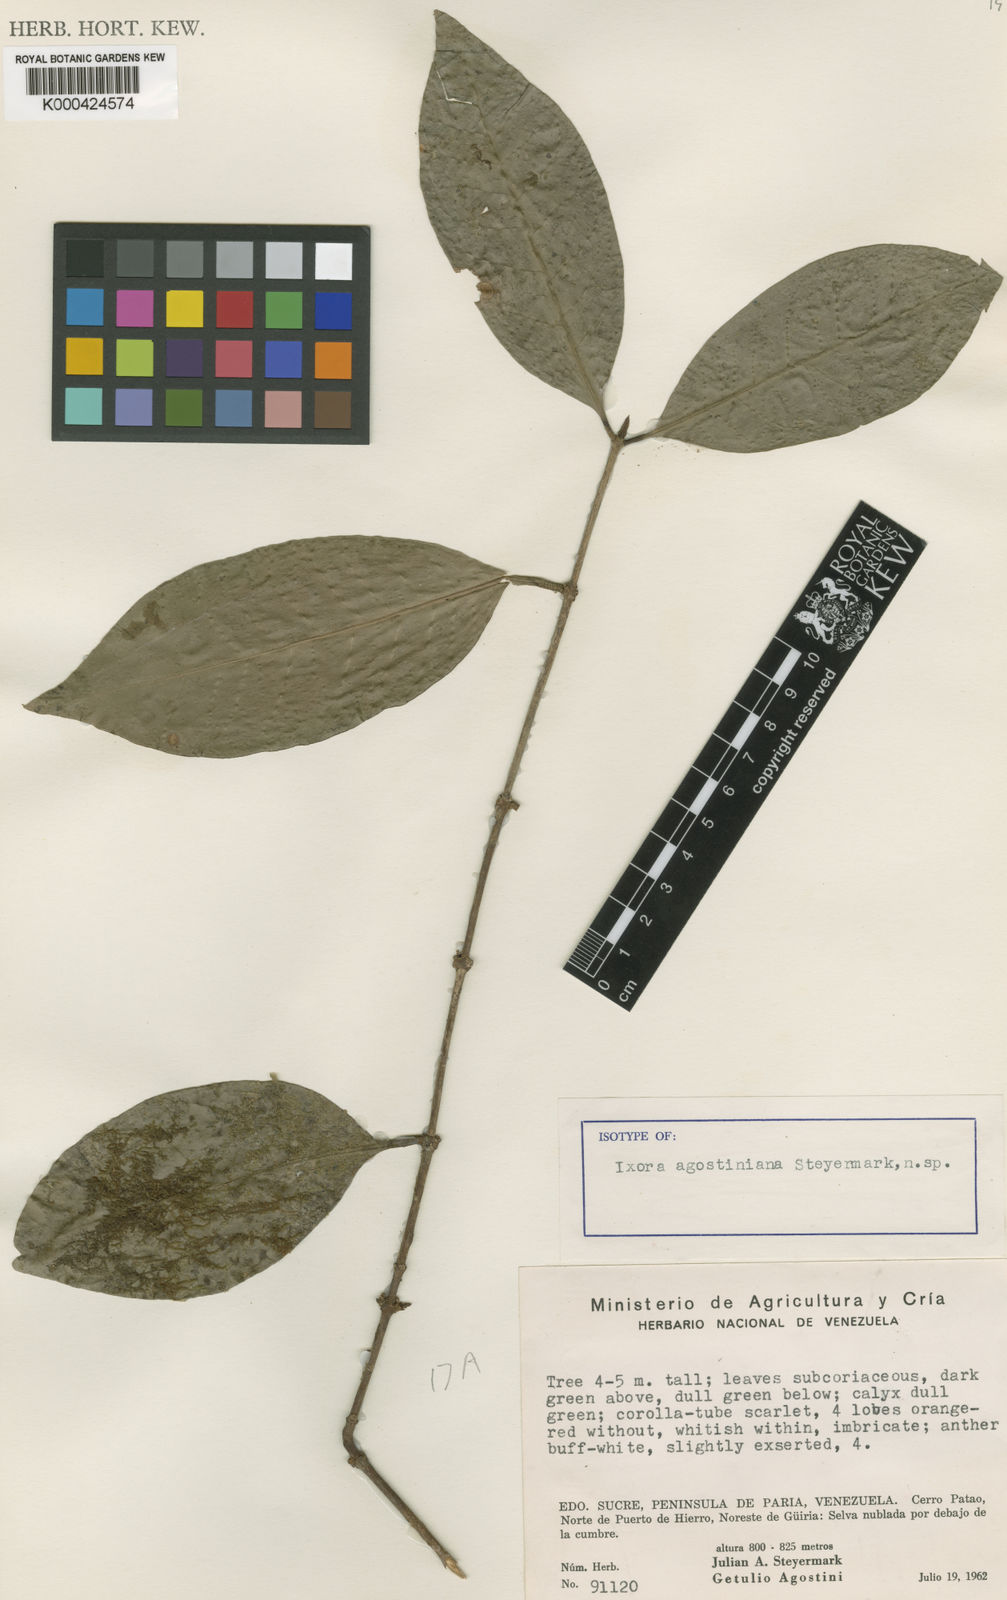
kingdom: Plantae
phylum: Tracheophyta
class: Magnoliopsida
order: Gentianales
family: Rubiaceae
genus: Ixora
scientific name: Ixora agostiniana
